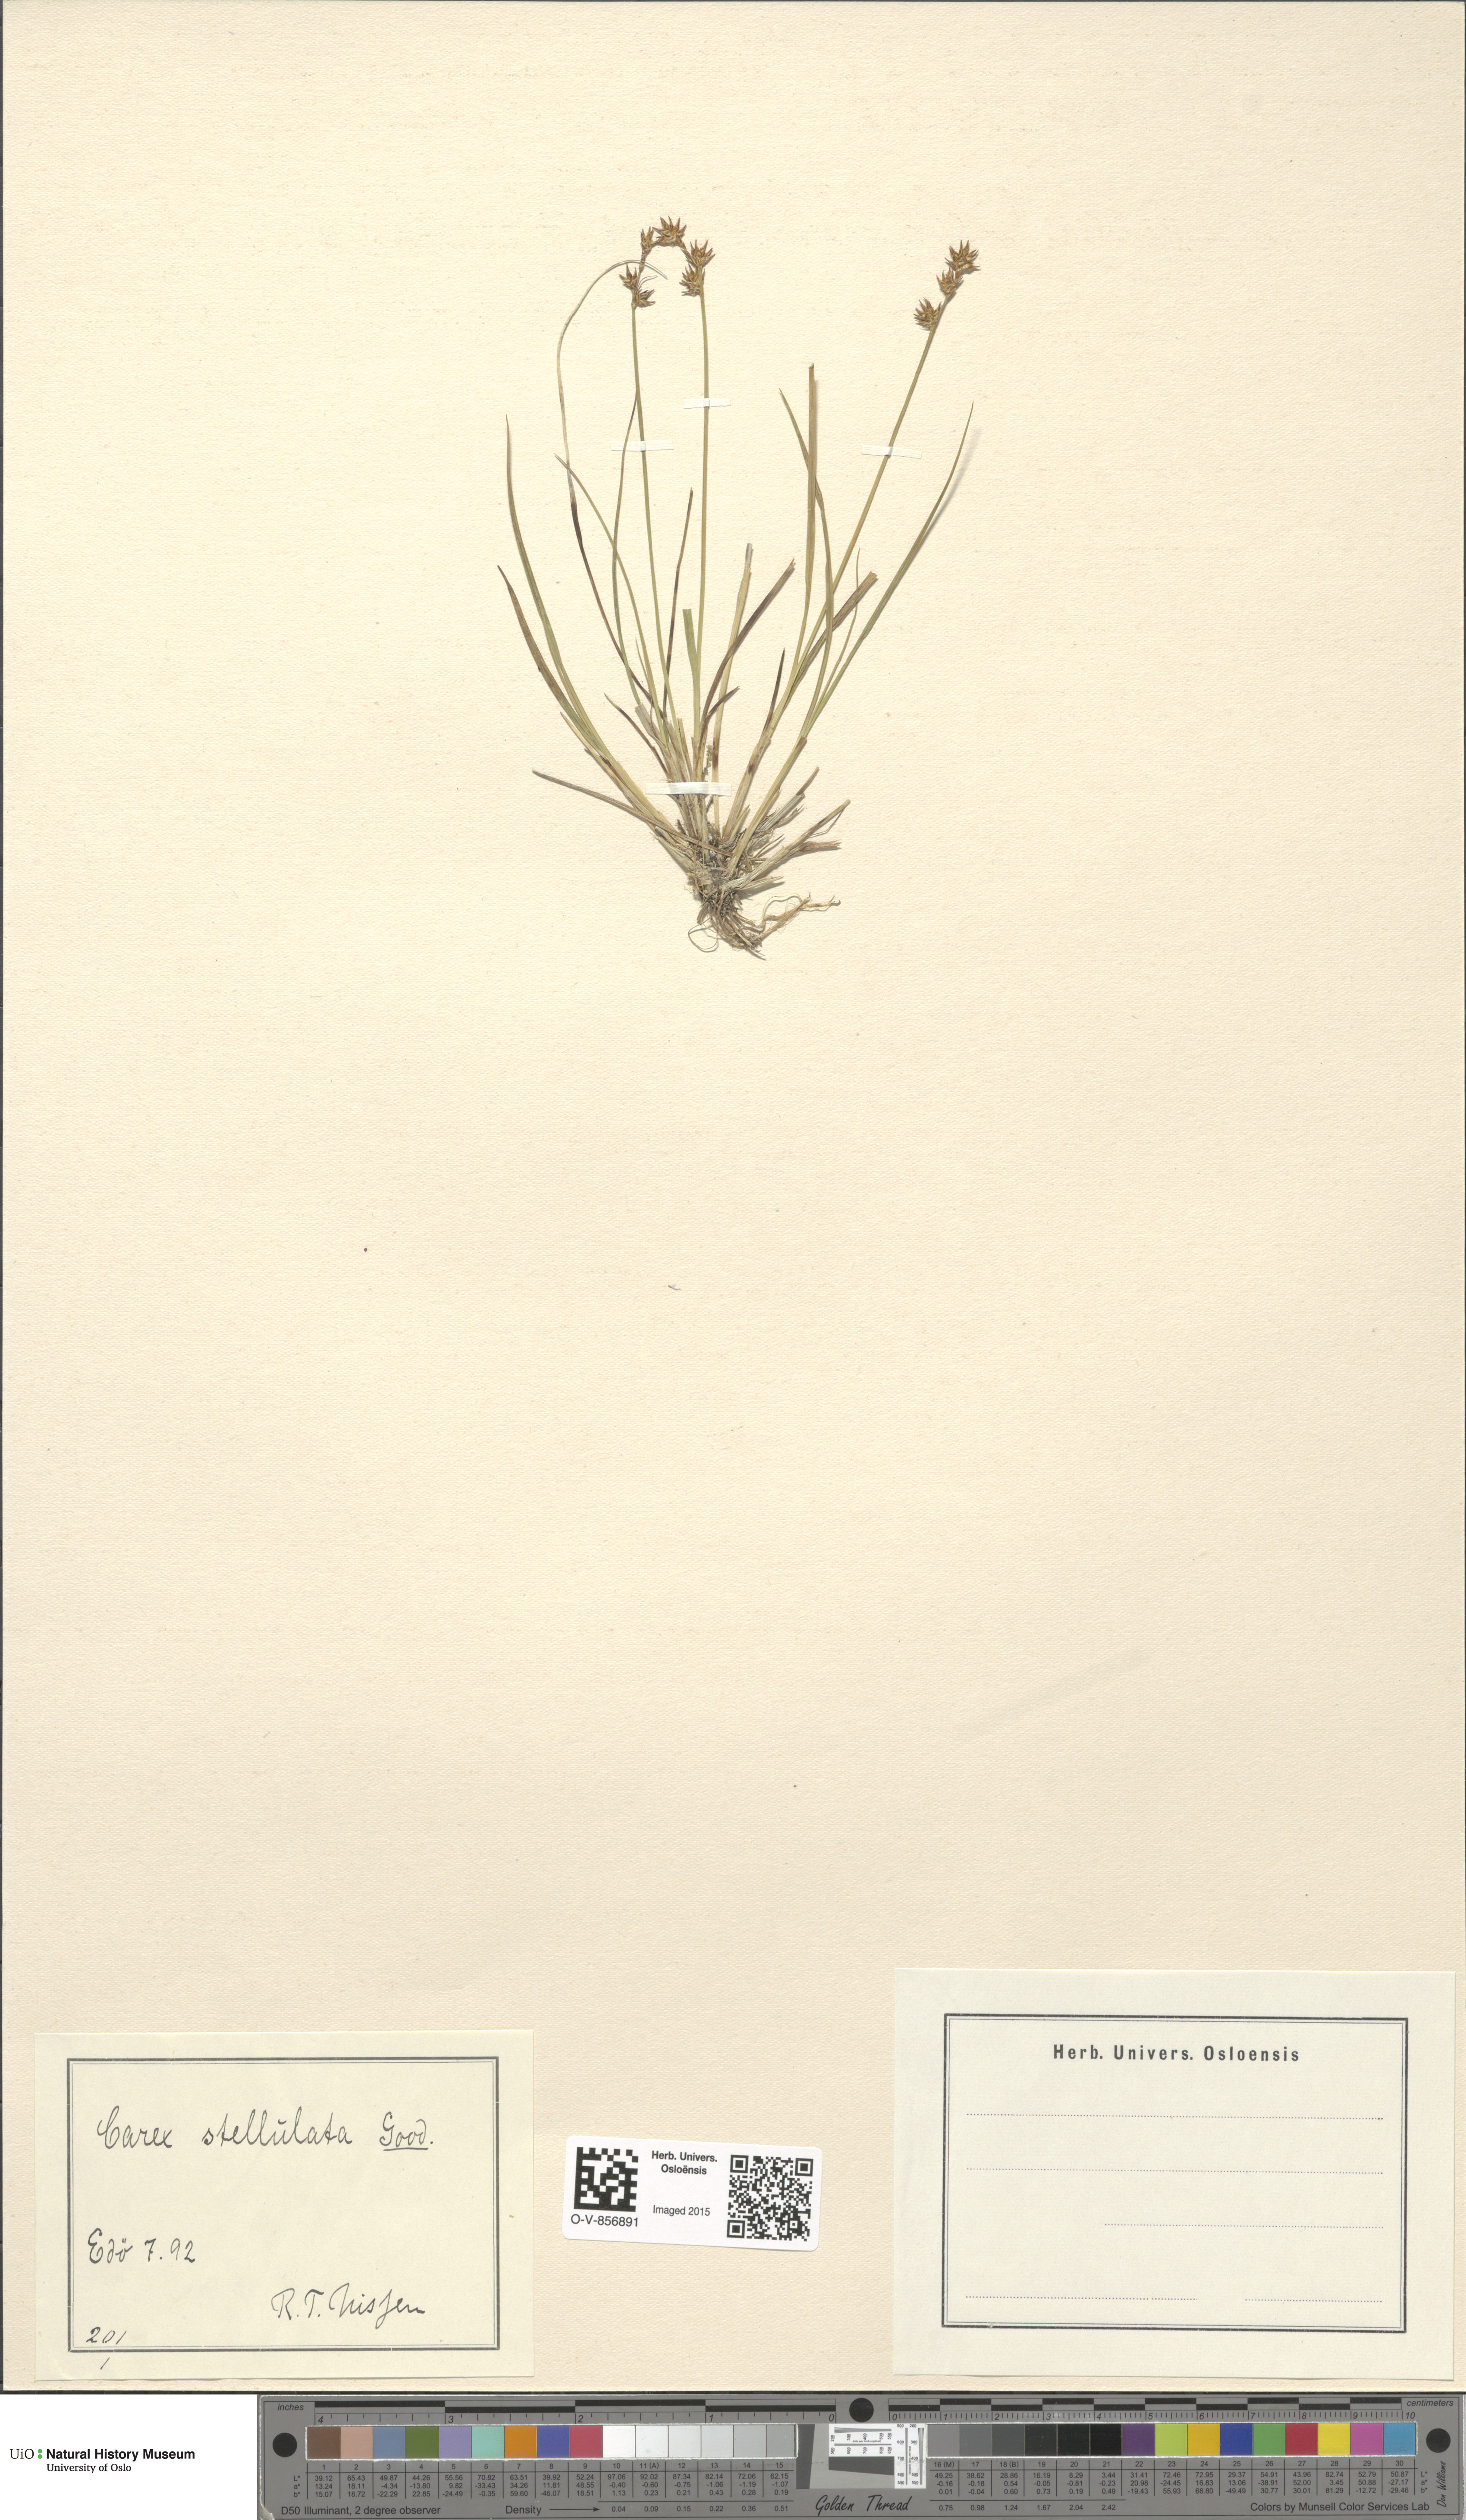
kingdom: Plantae
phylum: Tracheophyta
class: Liliopsida
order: Poales
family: Cyperaceae
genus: Carex
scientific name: Carex echinata
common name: Star sedge
